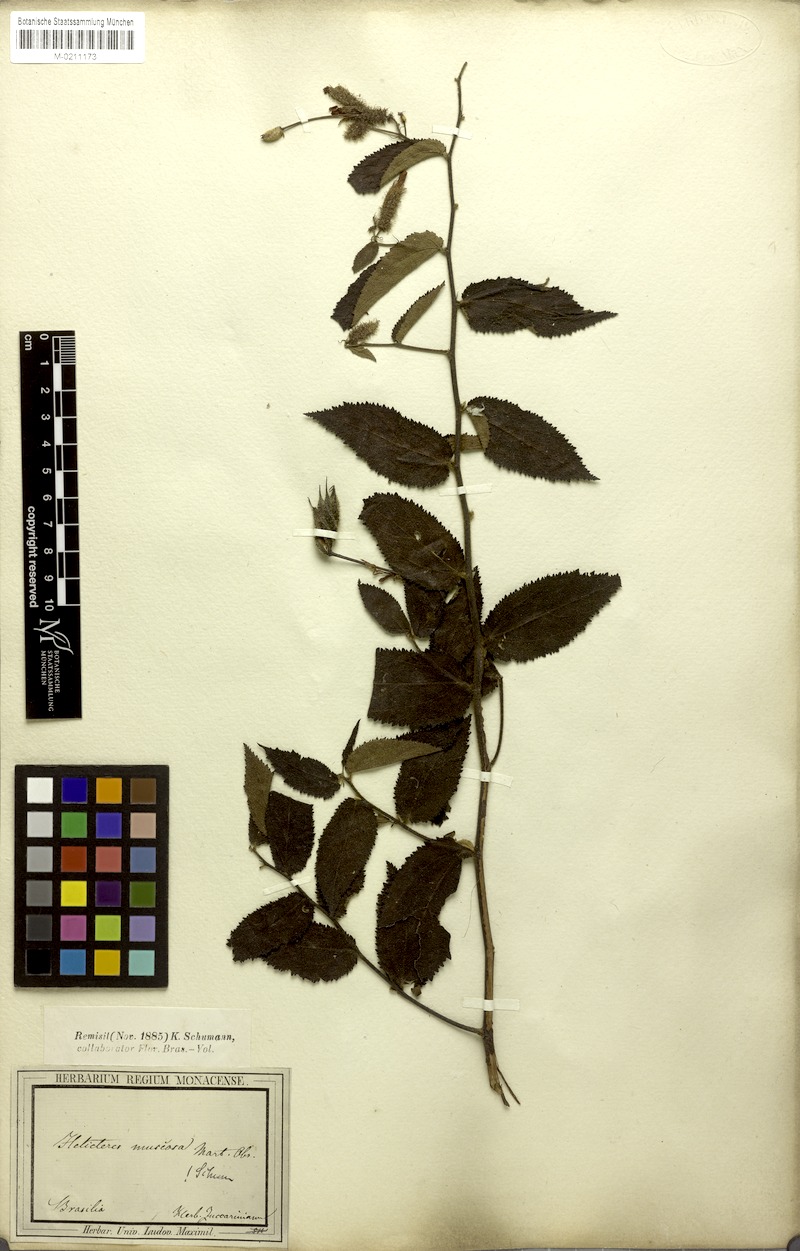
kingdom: Plantae
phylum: Tracheophyta
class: Magnoliopsida
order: Malvales
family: Malvaceae
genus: Helicteres
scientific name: Helicteres muscosa
